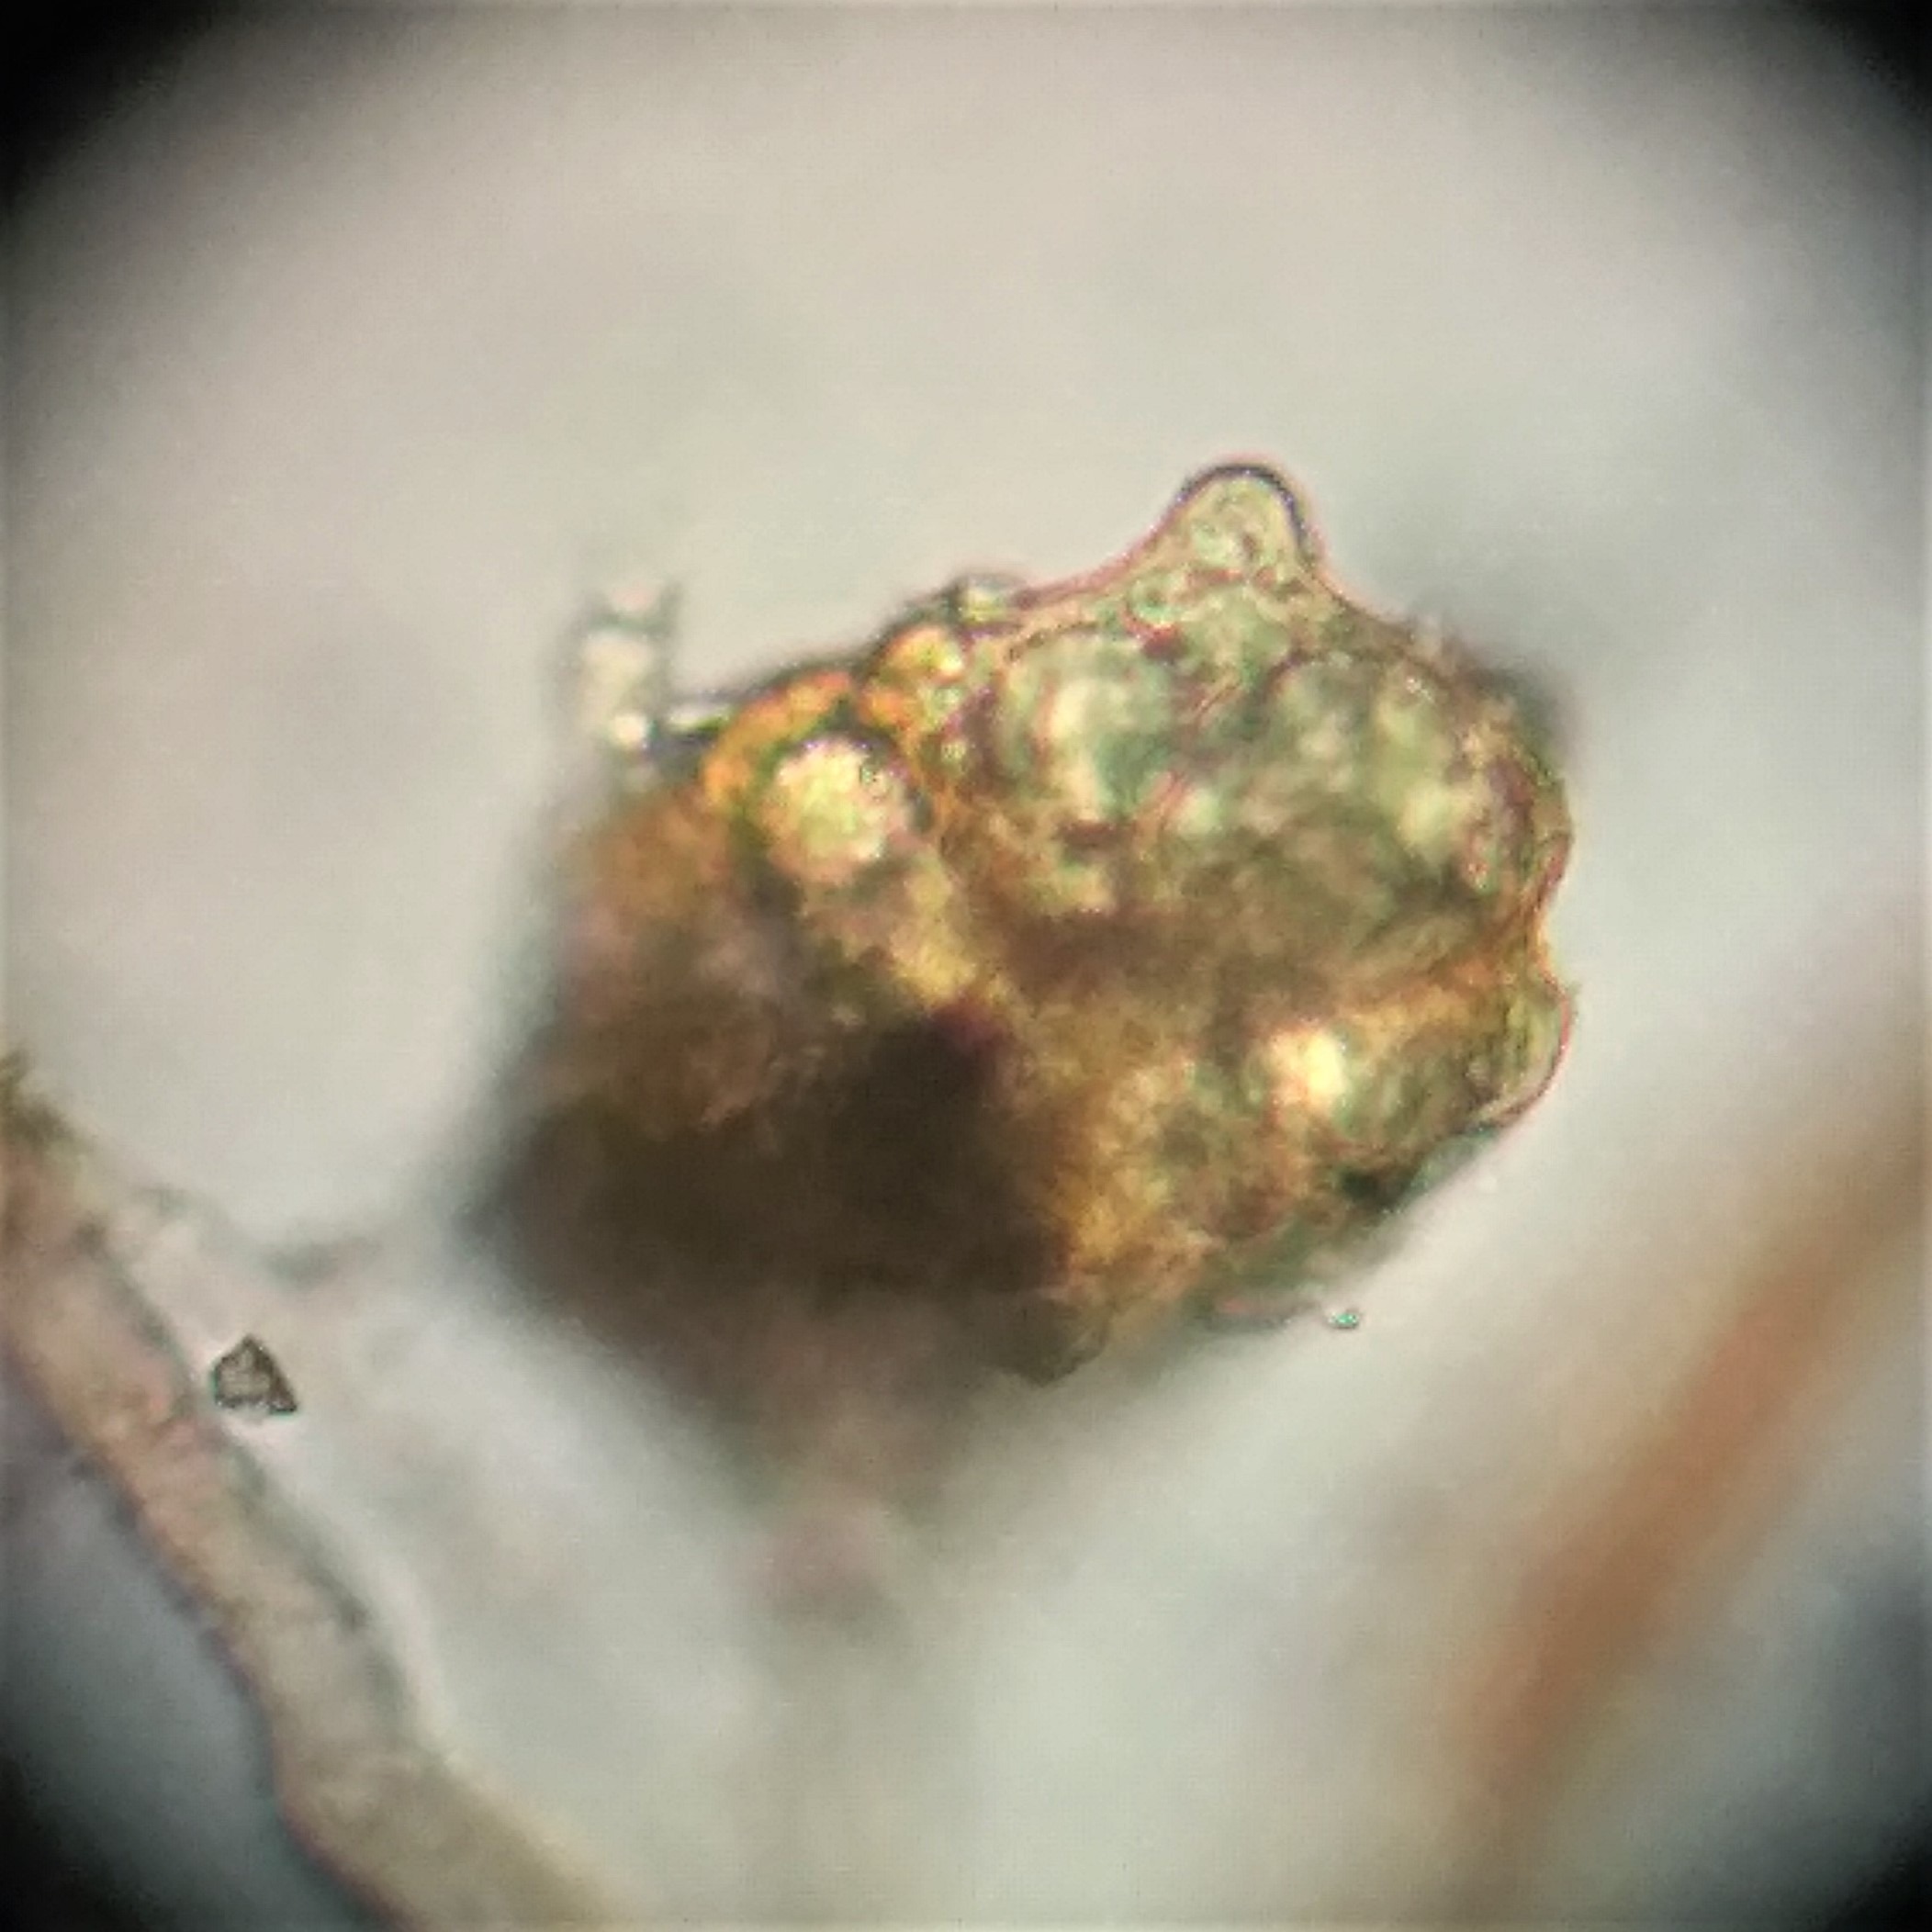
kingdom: Plantae
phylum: Bryophyta
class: Bryopsida
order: Bryales
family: Mniaceae
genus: Pohlia
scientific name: Pohlia lutescens
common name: Gul nikkemos
